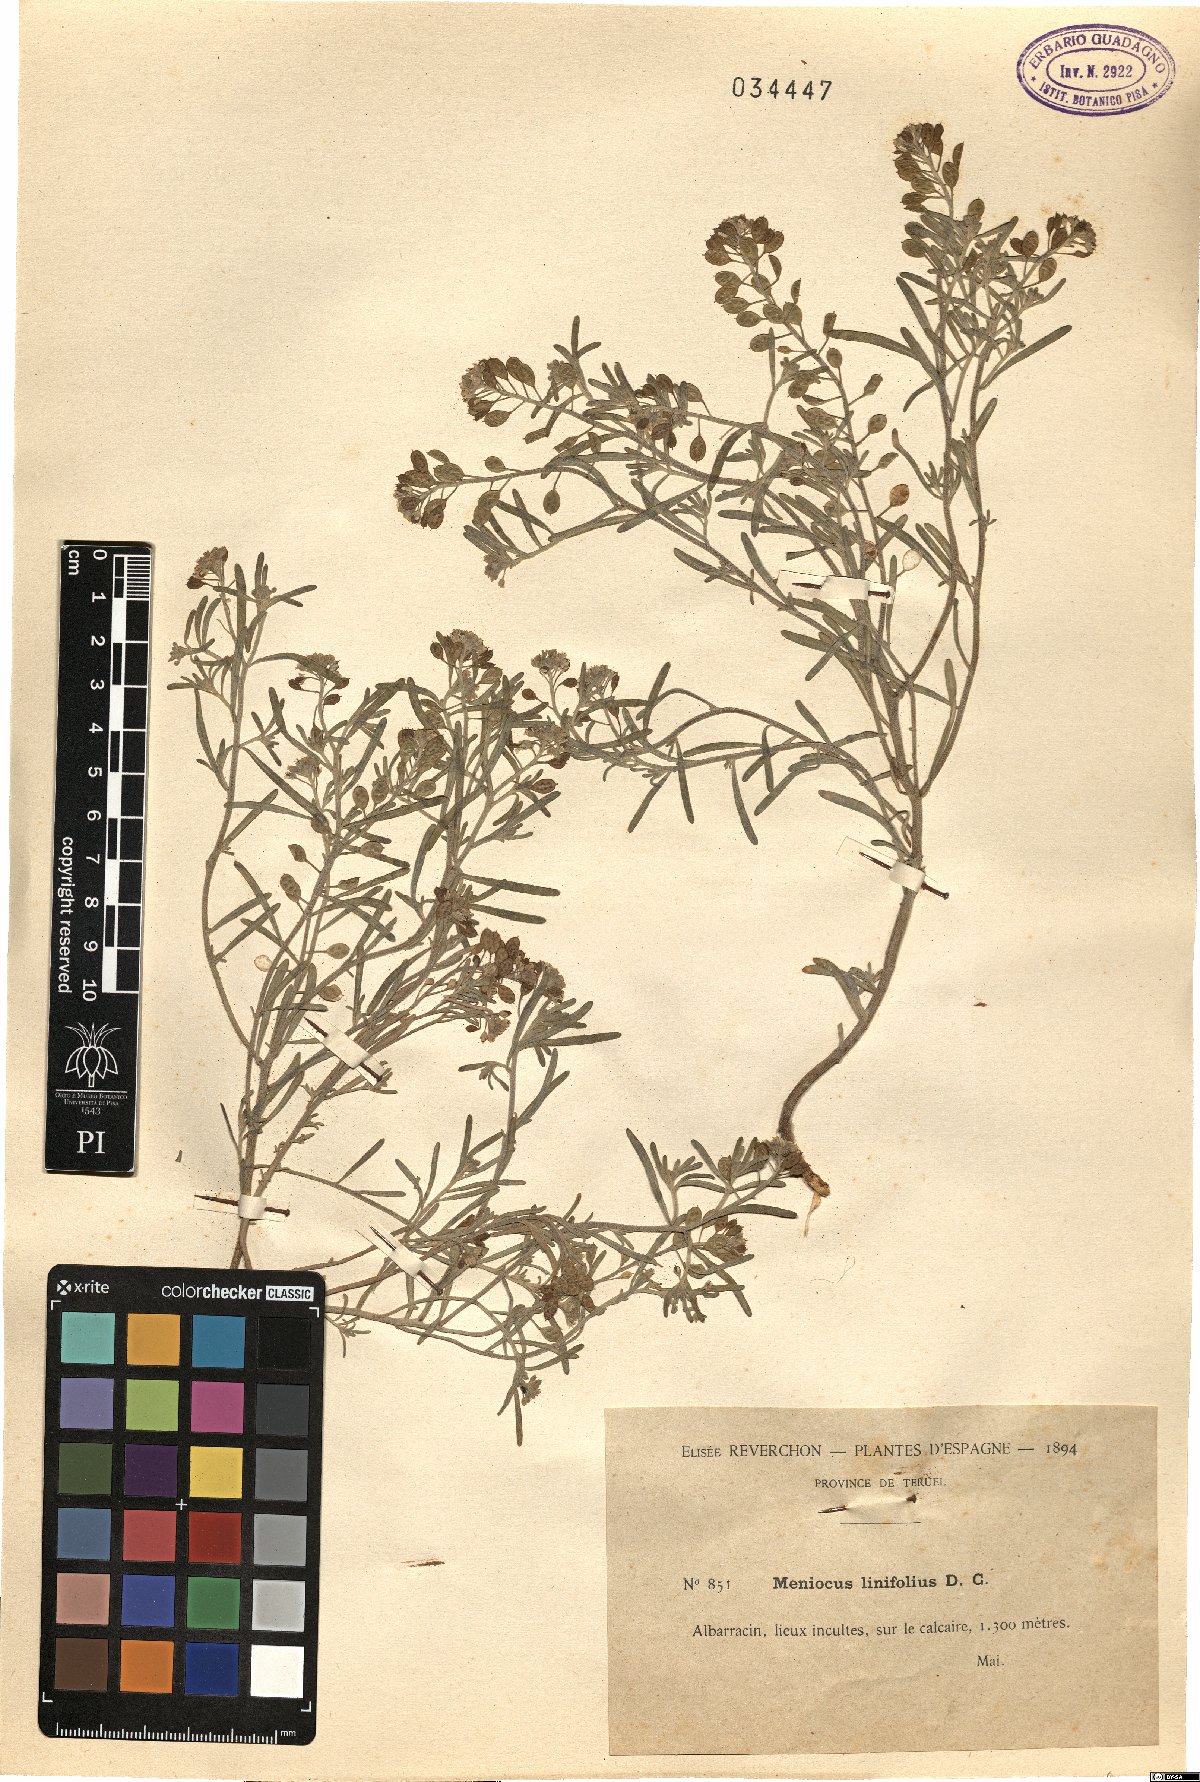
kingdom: Plantae
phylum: Tracheophyta
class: Magnoliopsida
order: Brassicales
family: Brassicaceae
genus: Meniocus
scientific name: Meniocus linifolius
